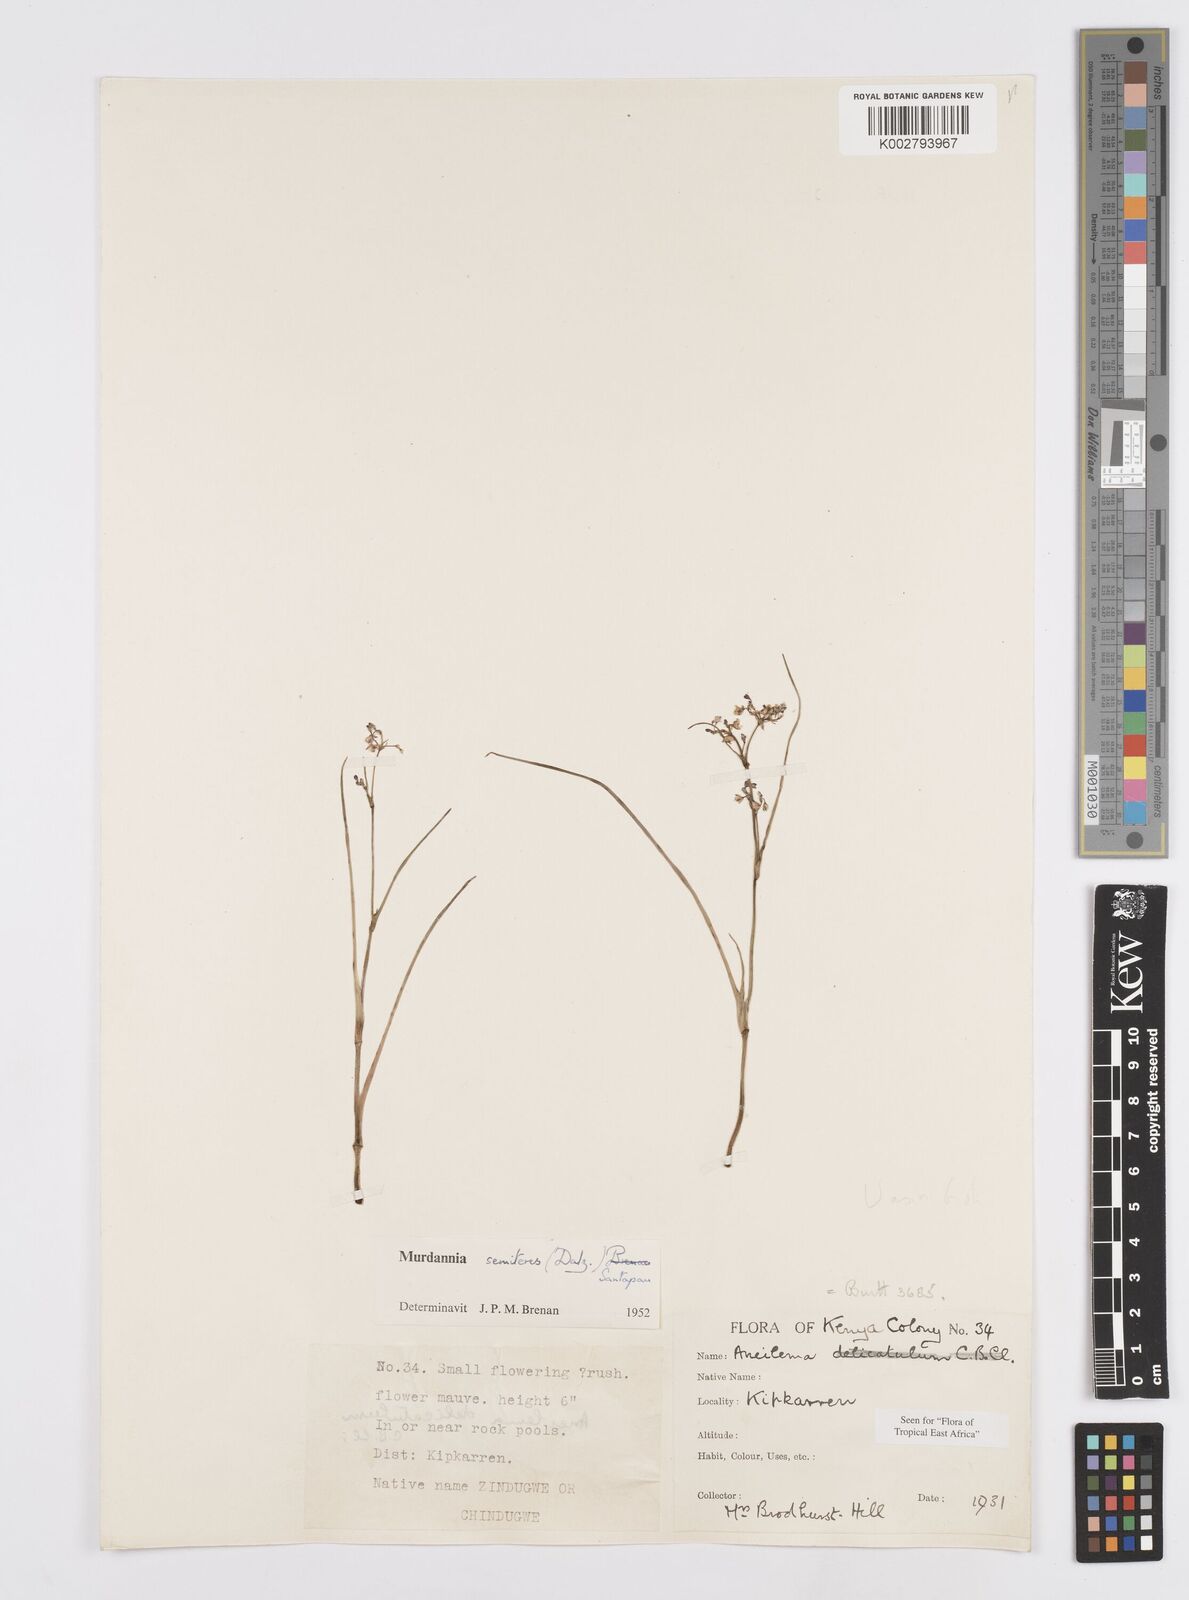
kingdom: Plantae
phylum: Tracheophyta
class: Liliopsida
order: Commelinales
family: Commelinaceae
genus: Murdannia
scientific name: Murdannia semiteres
